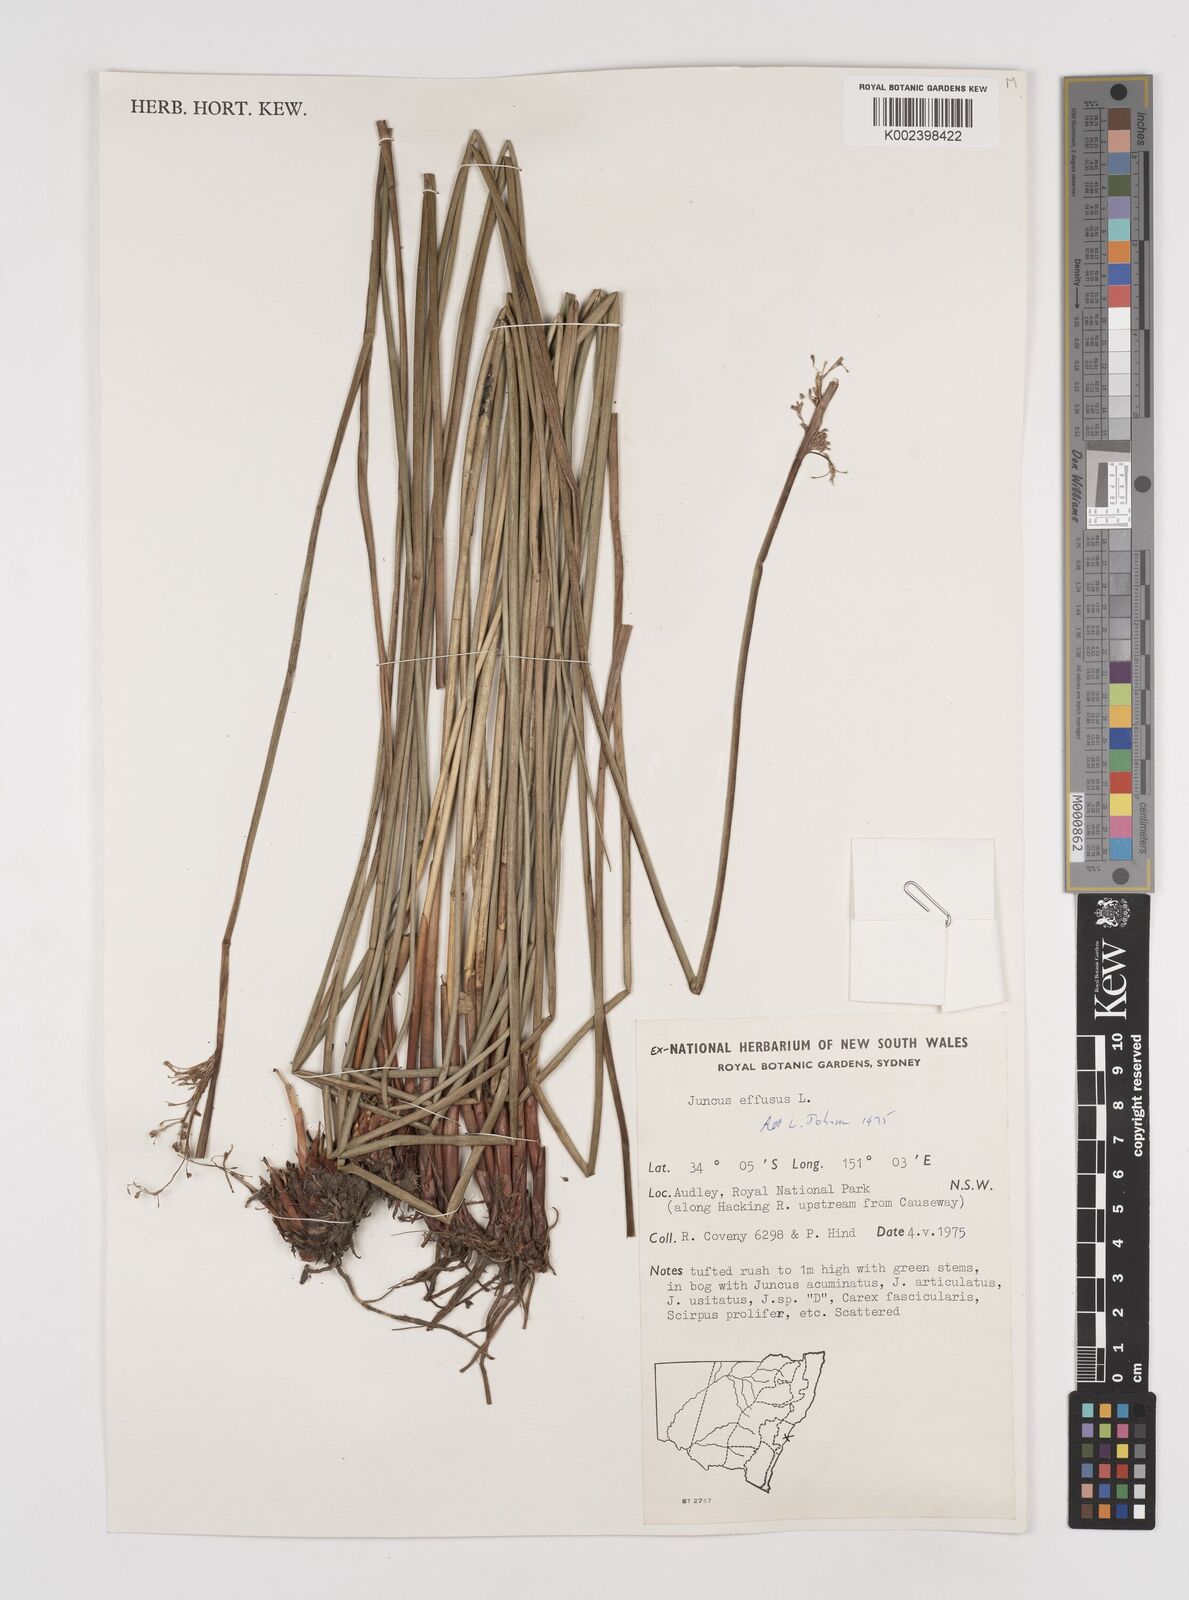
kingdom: Plantae
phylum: Tracheophyta
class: Liliopsida
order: Poales
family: Juncaceae
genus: Juncus
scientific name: Juncus effusus
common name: Soft rush
